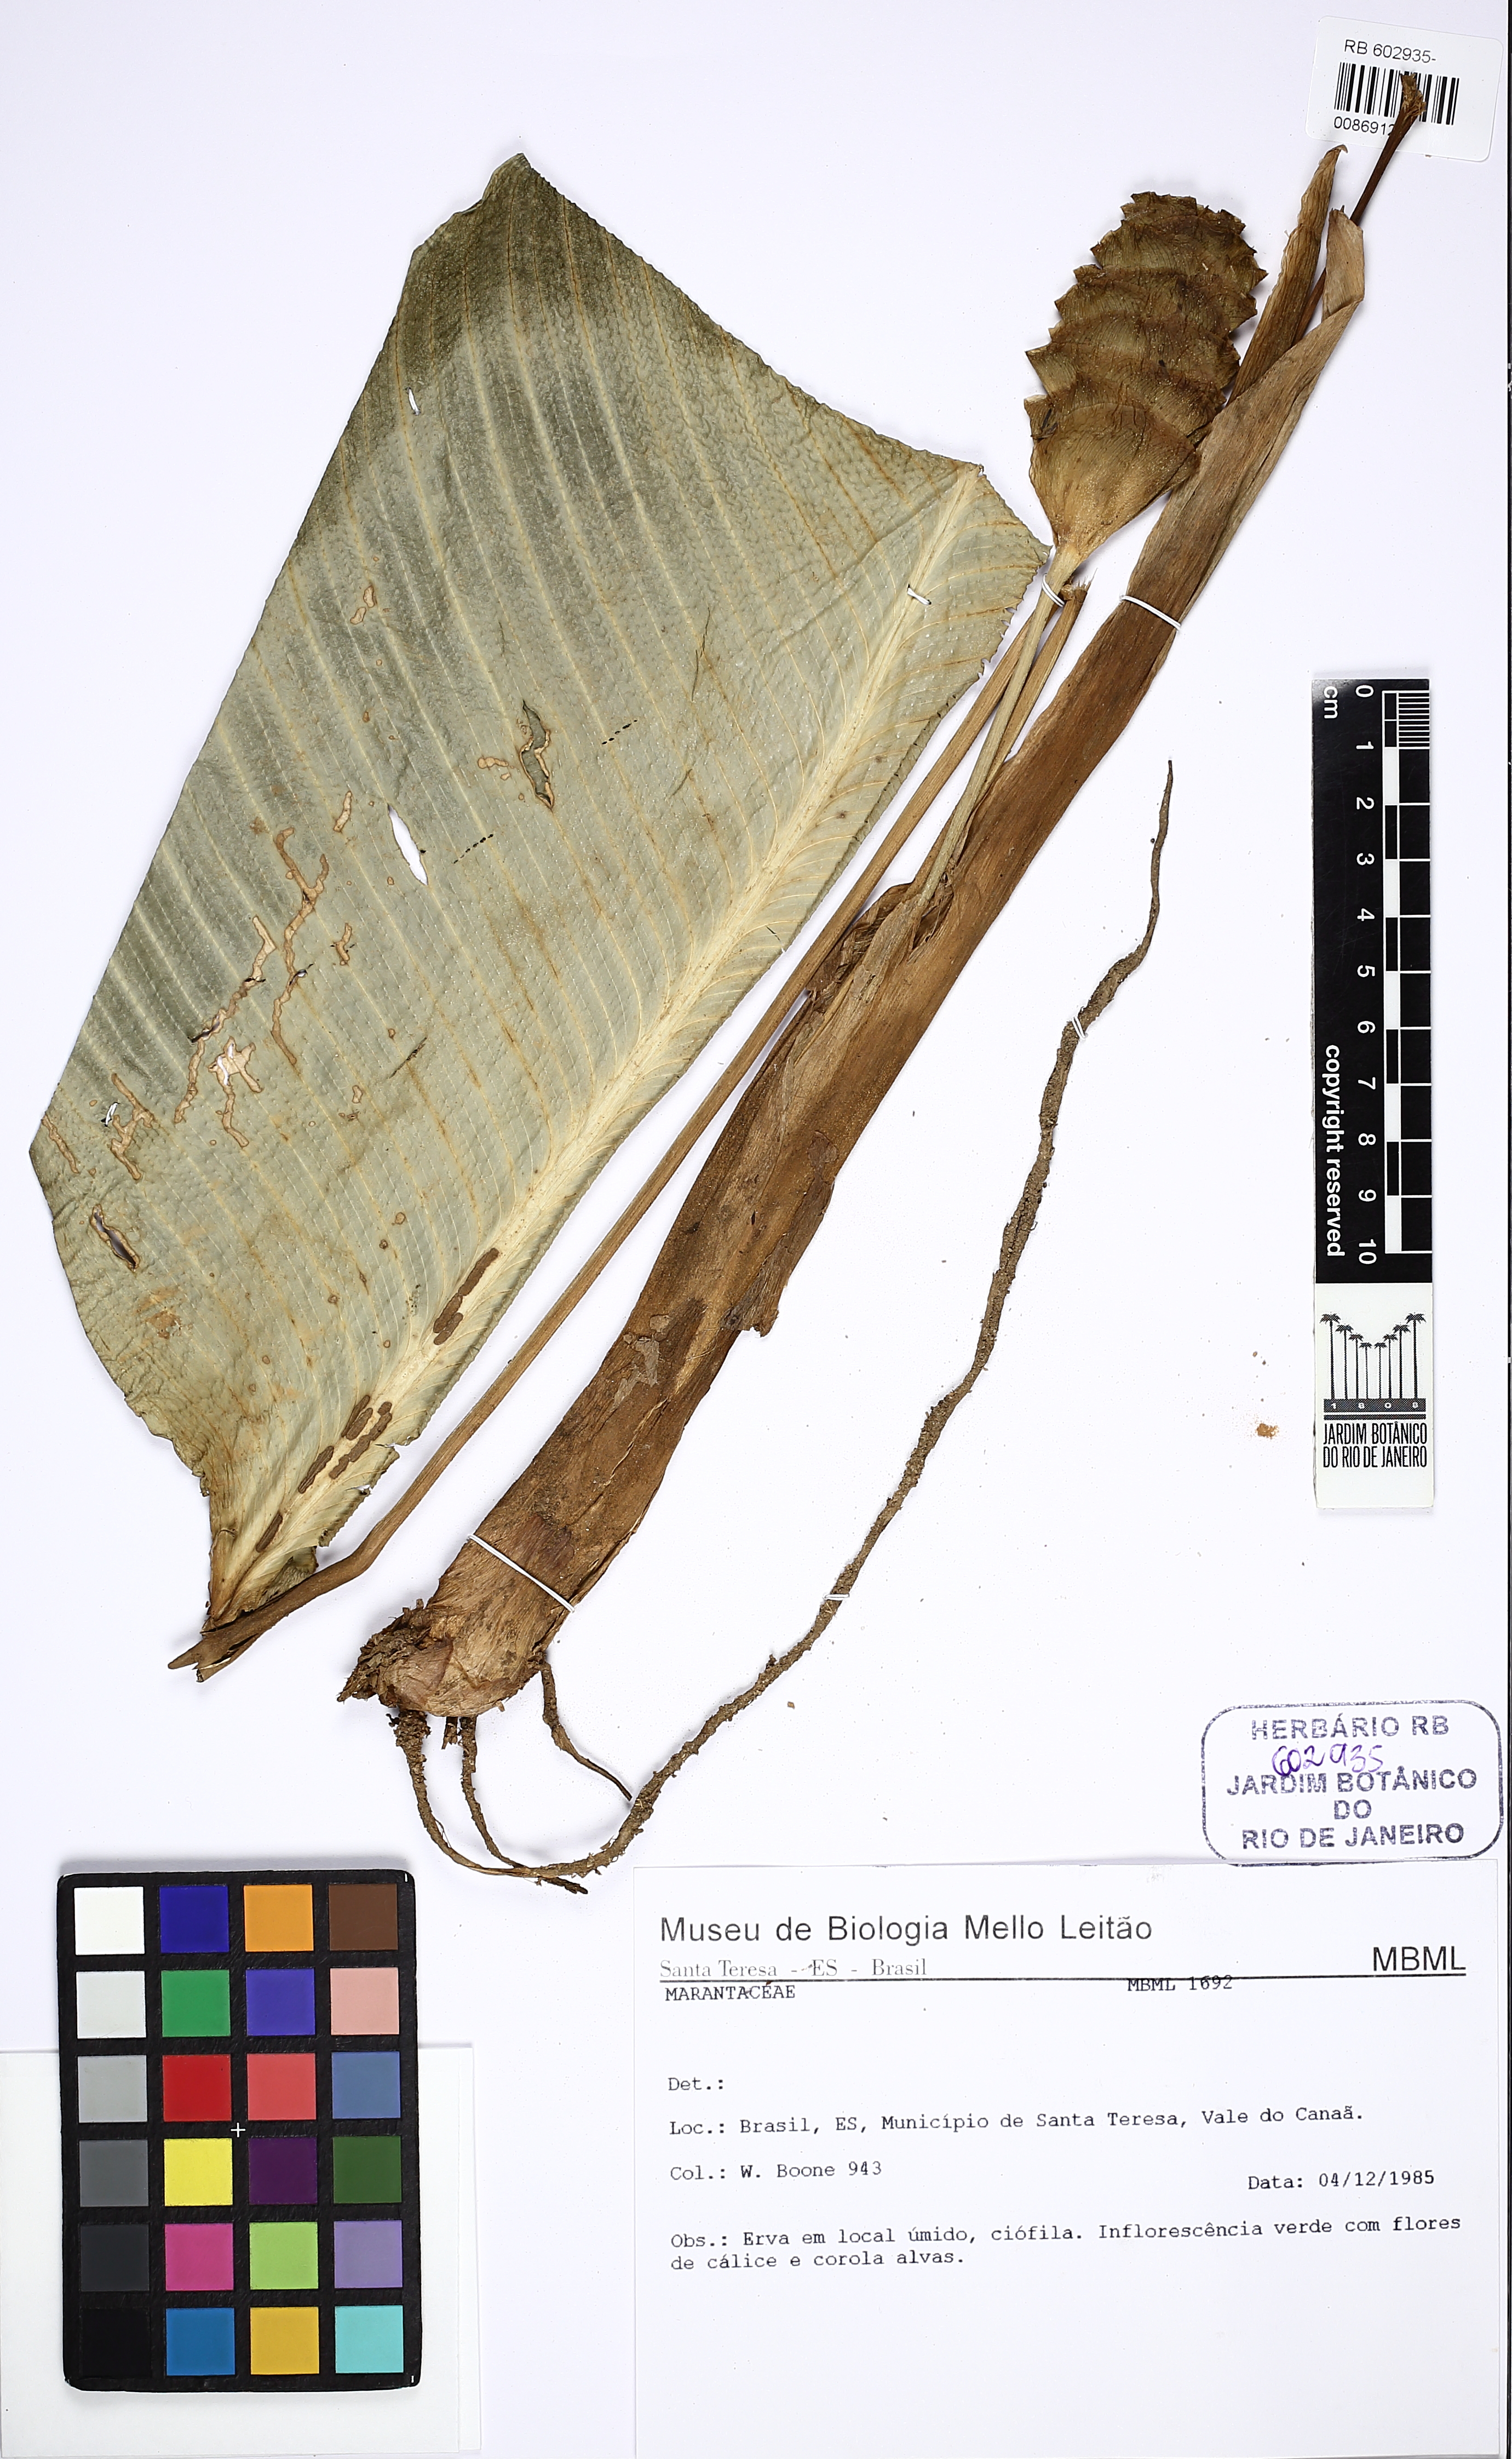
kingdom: Plantae
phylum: Tracheophyta
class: Liliopsida
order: Zingiberales
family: Marantaceae
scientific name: Marantaceae
